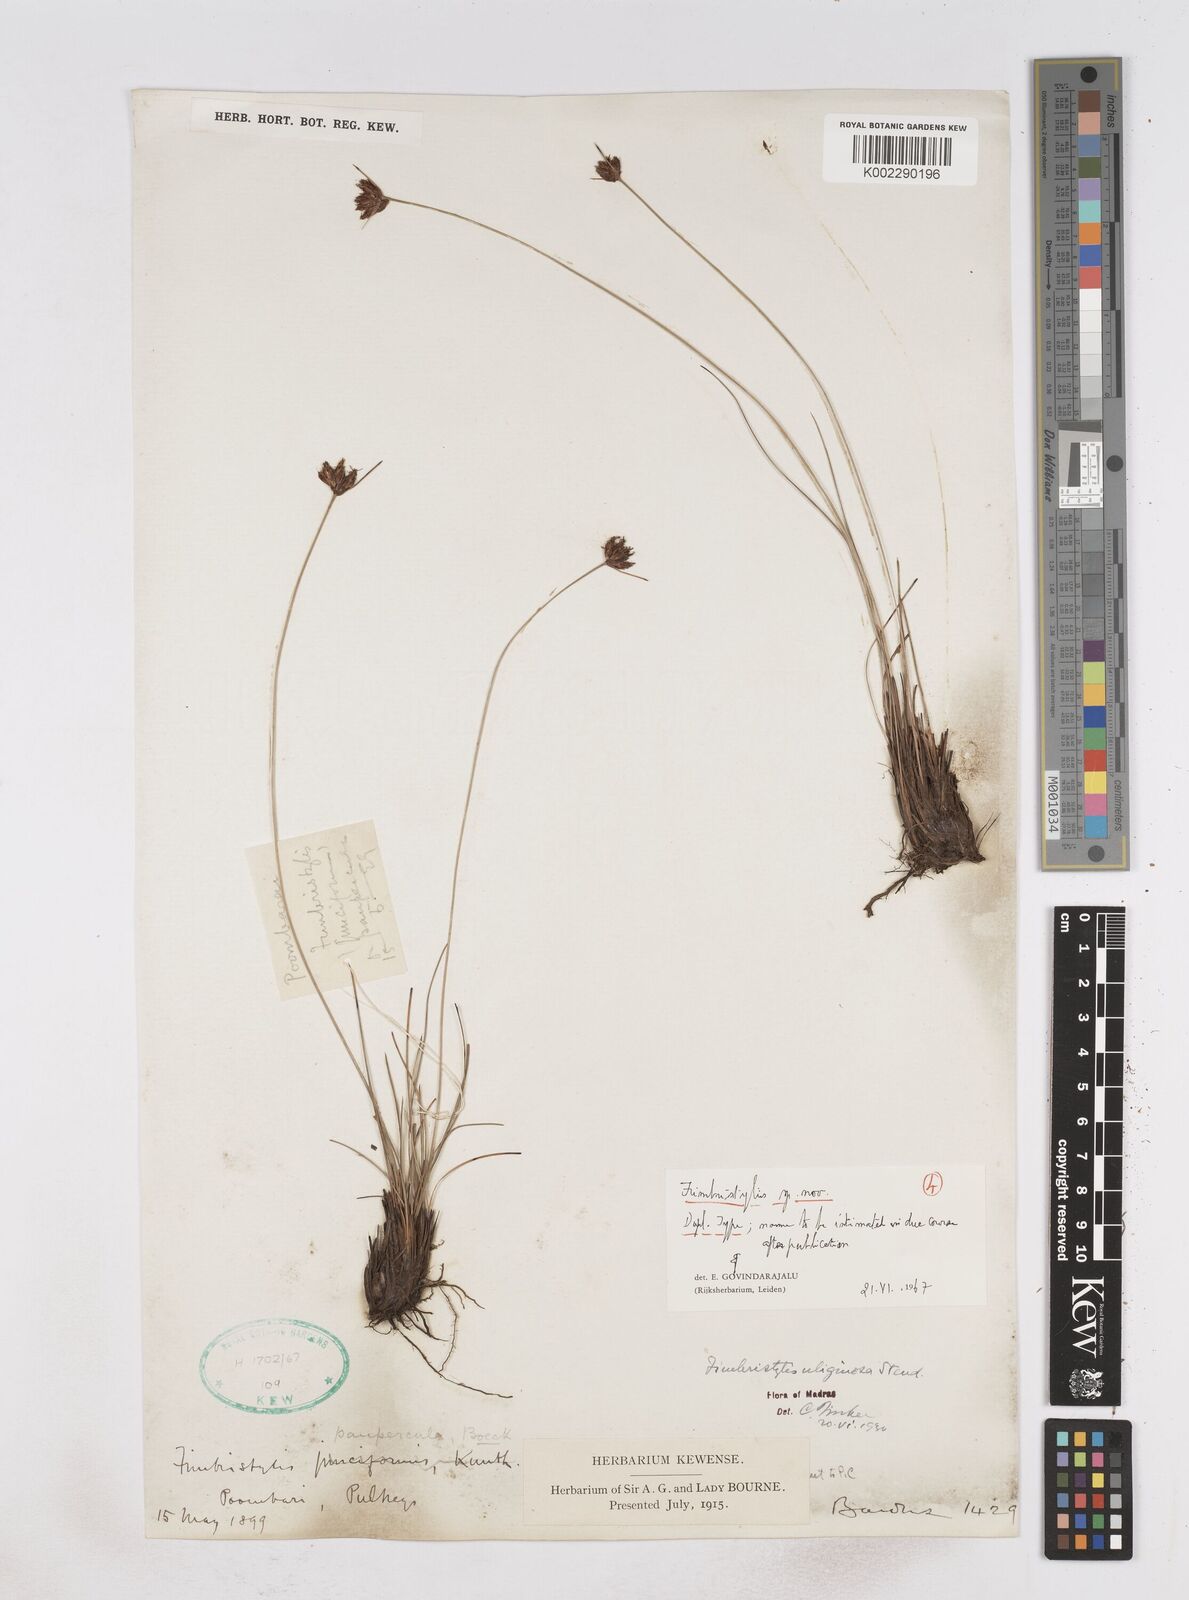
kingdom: Plantae
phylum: Tracheophyta
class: Liliopsida
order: Poales
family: Cyperaceae
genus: Fimbristylis
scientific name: Fimbristylis
